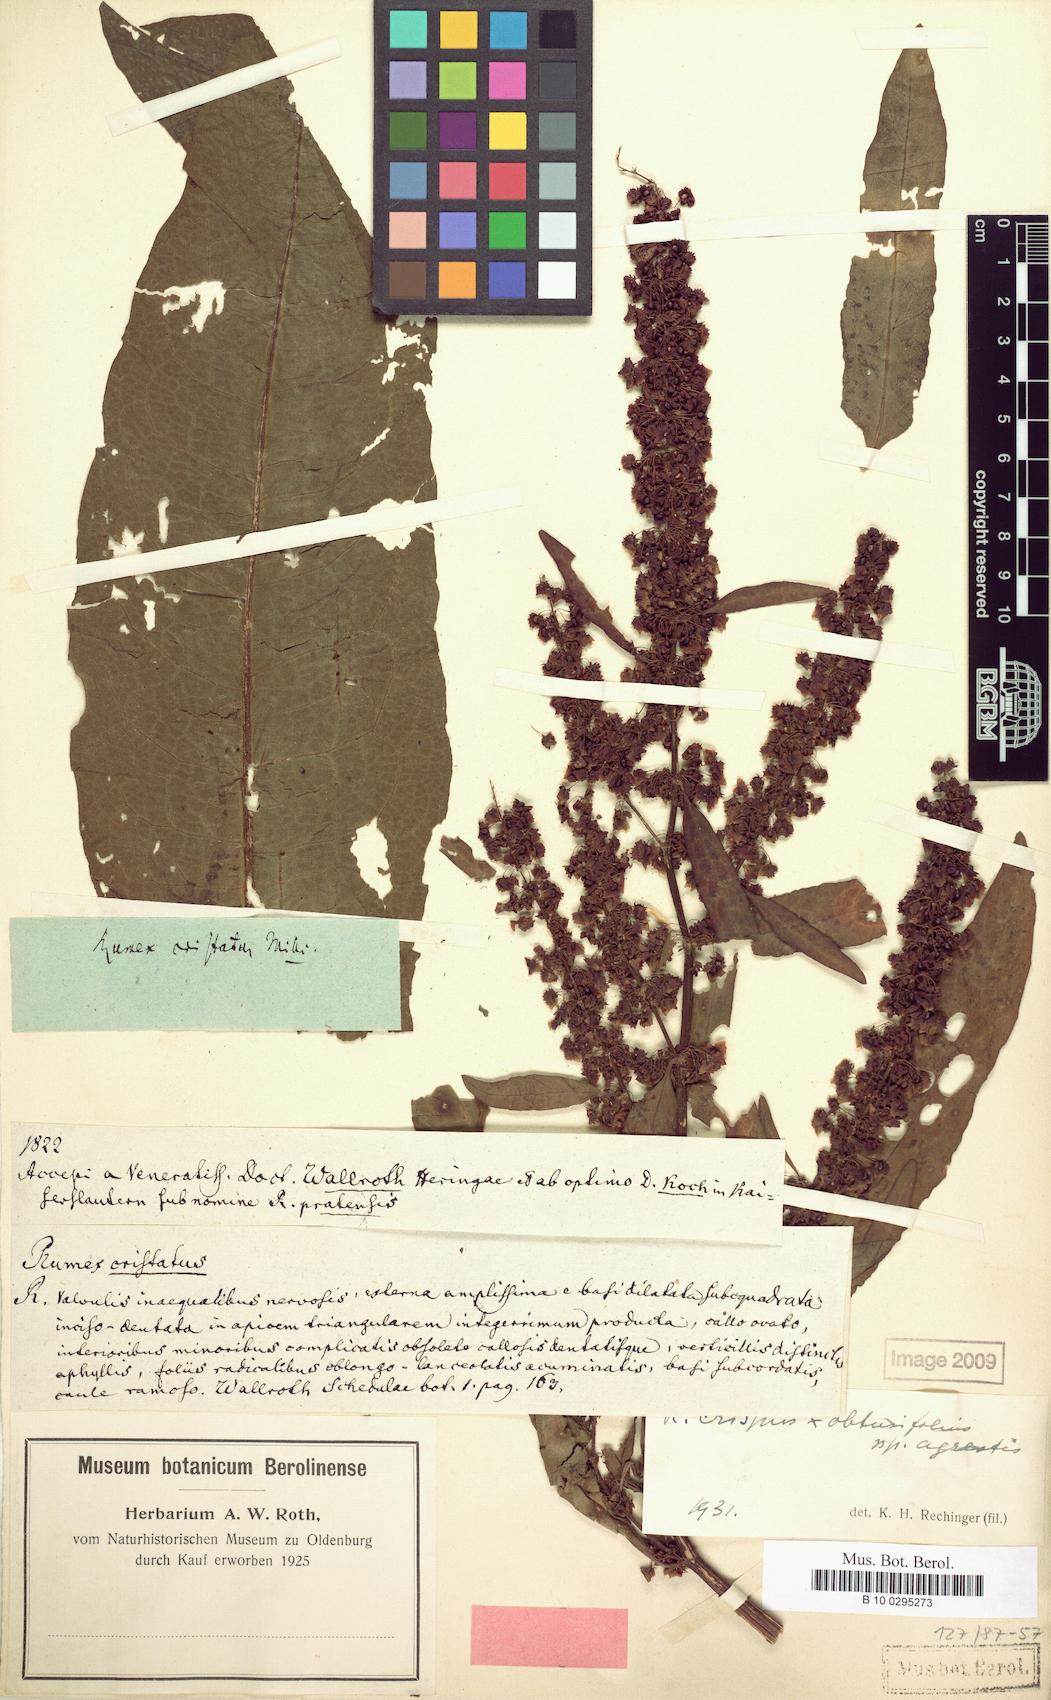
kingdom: Plantae
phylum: Tracheophyta
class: Magnoliopsida
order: Caryophyllales
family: Polygonaceae
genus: Rumex
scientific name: Rumex obtusifolius
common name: Bitter dock
